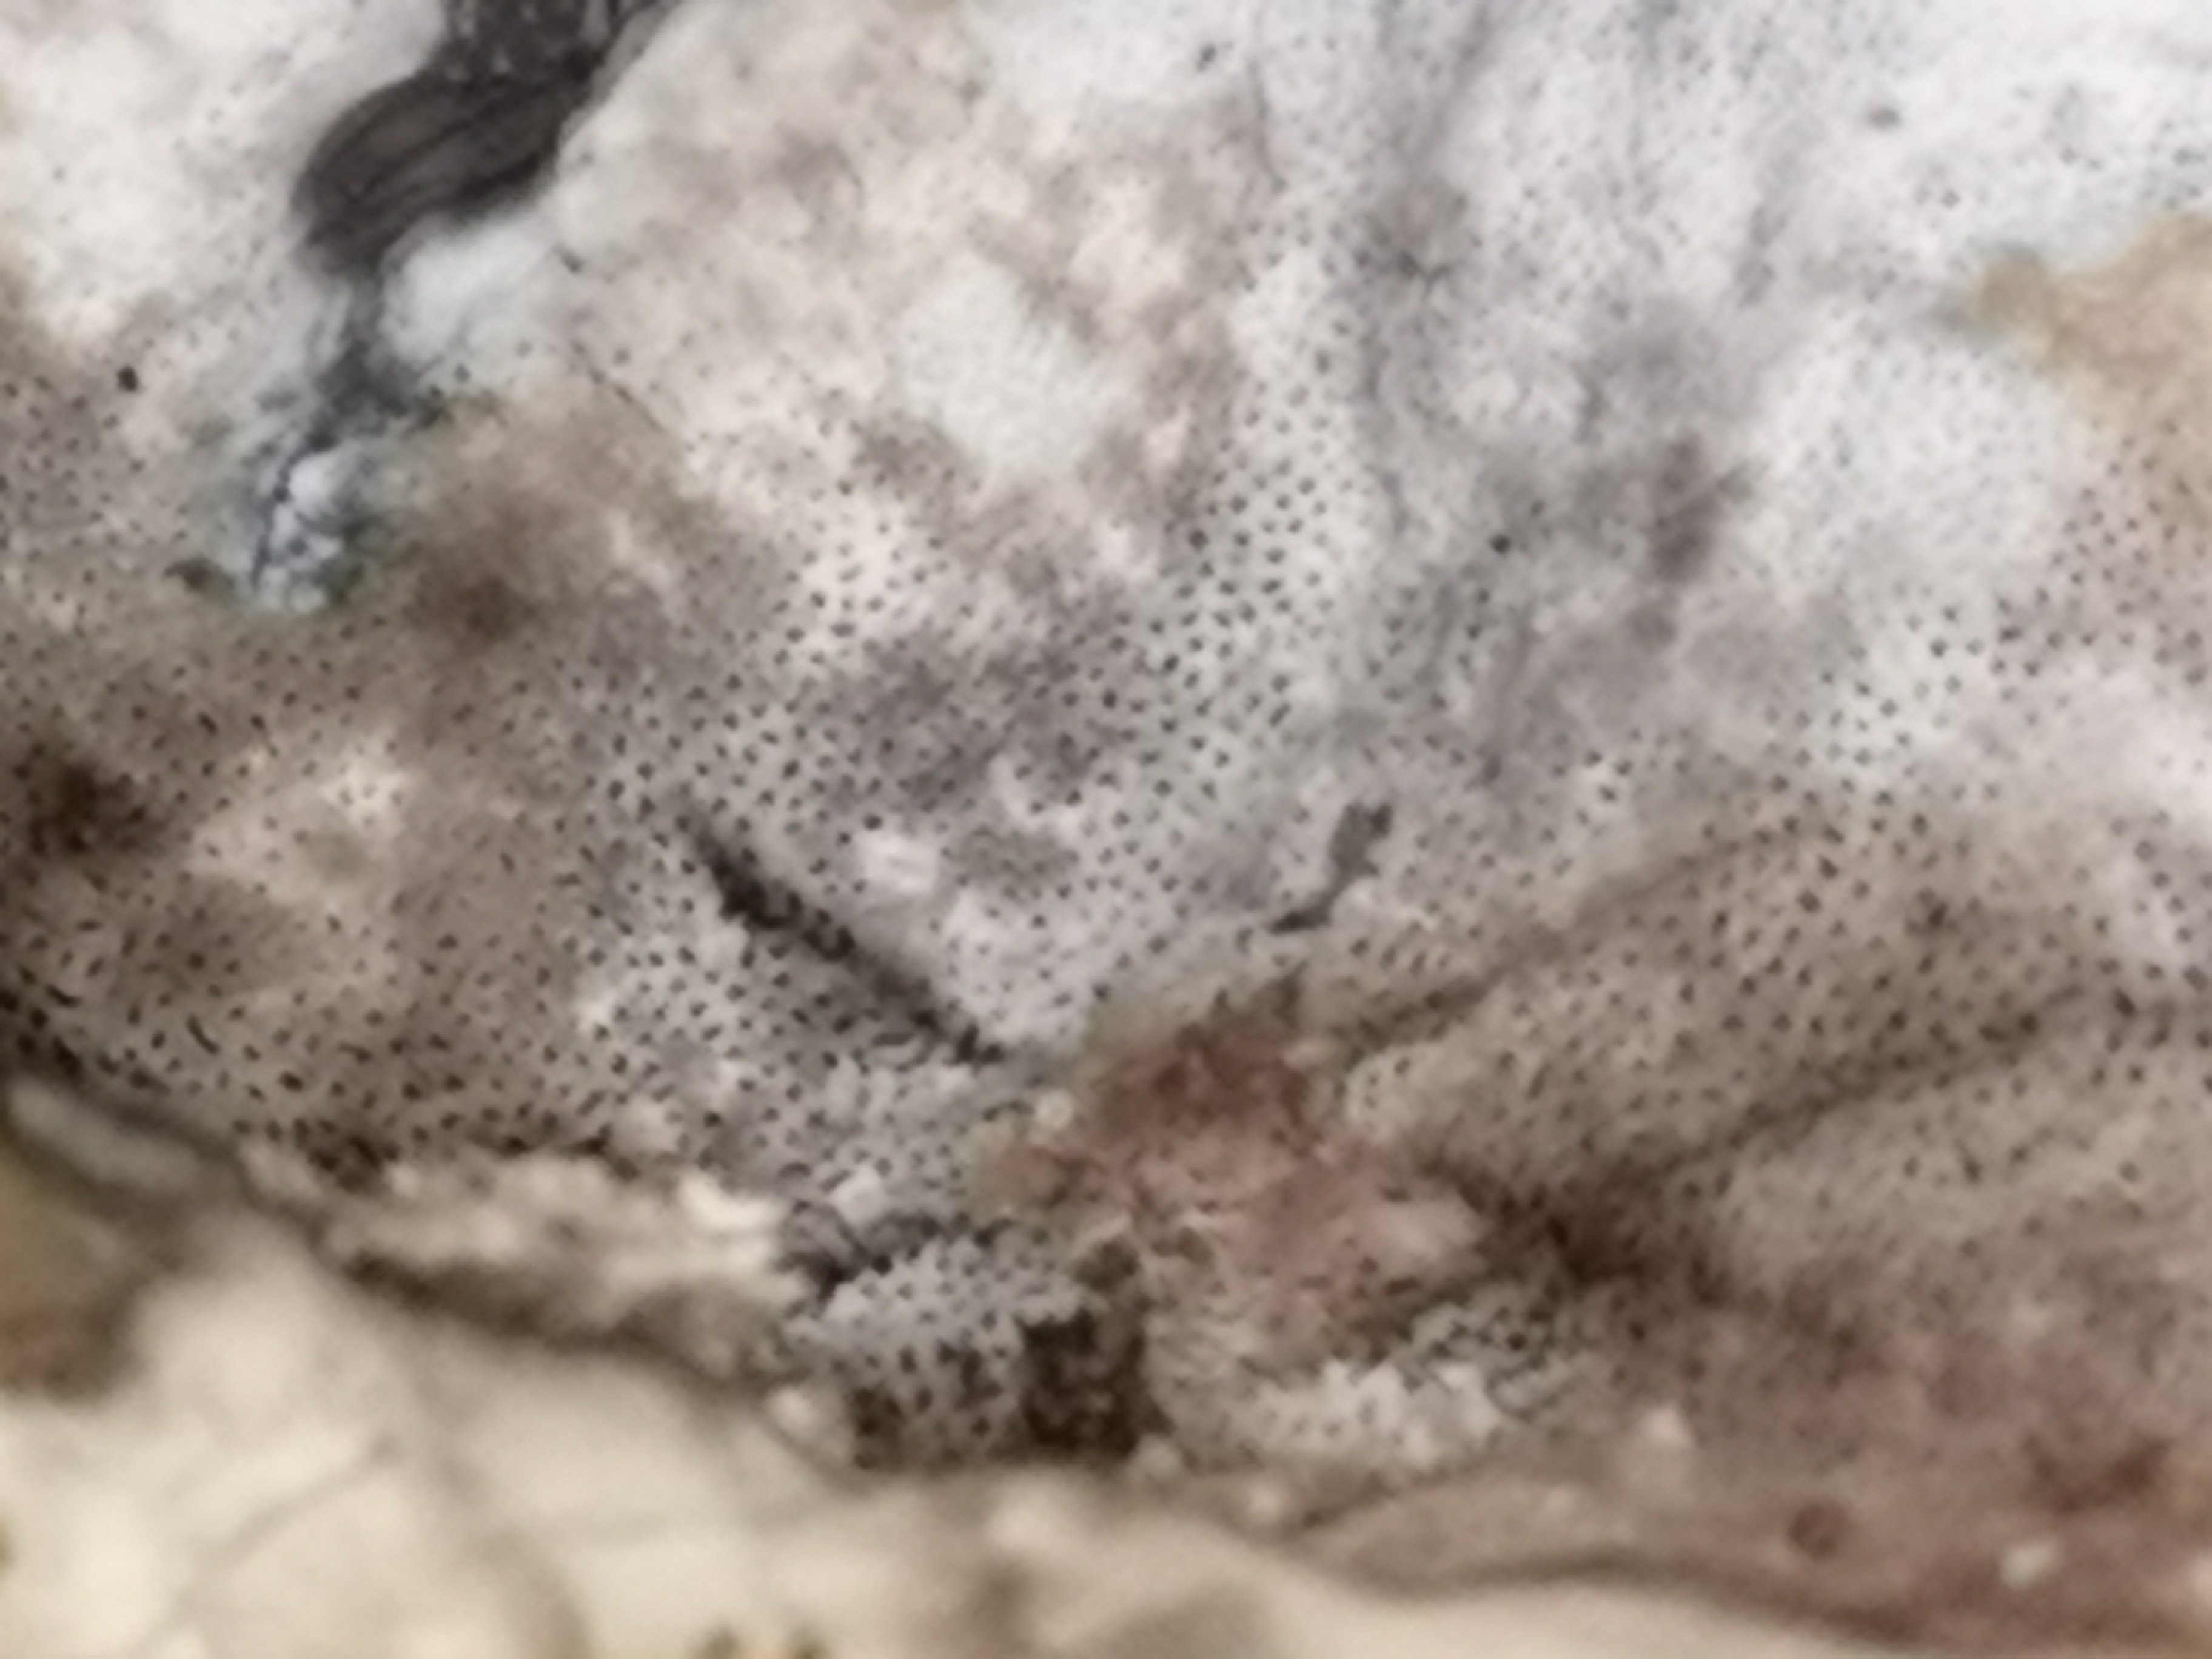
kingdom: Fungi
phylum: Basidiomycota
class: Agaricomycetes
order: Polyporales
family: Phanerochaetaceae
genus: Bjerkandera
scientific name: Bjerkandera adusta
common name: sveden sodporesvamp
